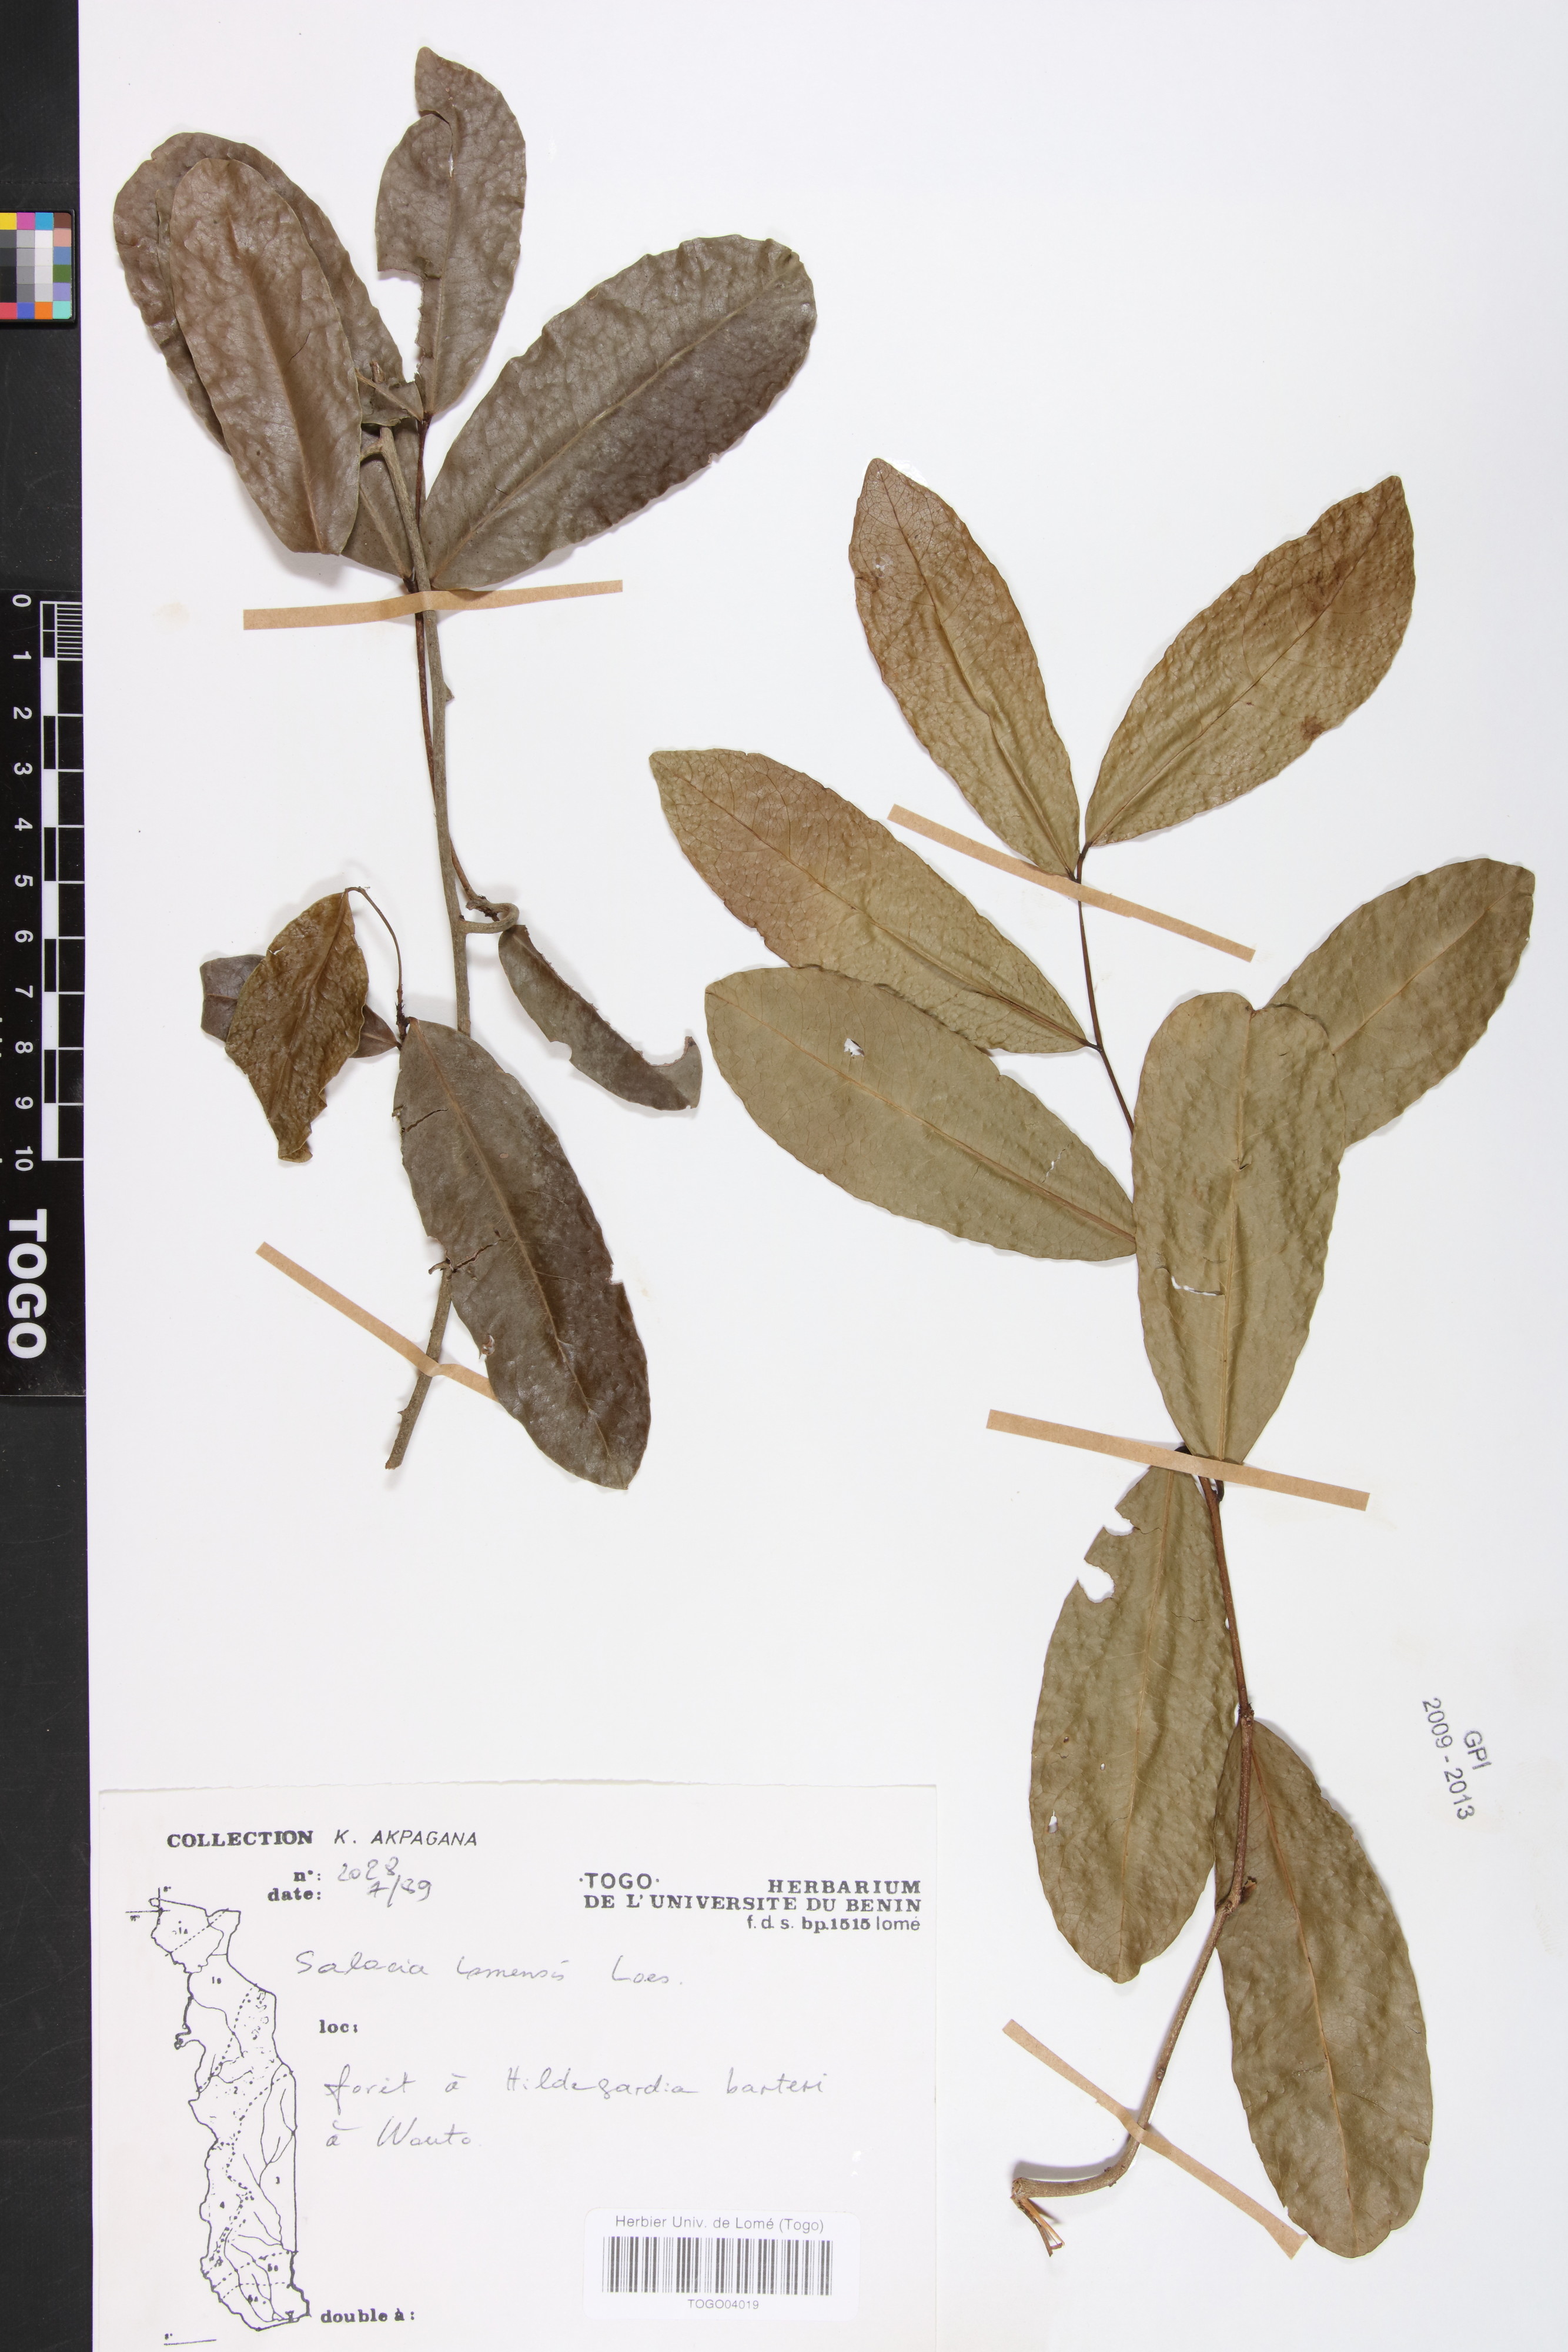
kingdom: Plantae
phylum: Tracheophyta
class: Magnoliopsida
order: Celastrales
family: Celastraceae
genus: Salacia
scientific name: Salacia stuhlmanniana
